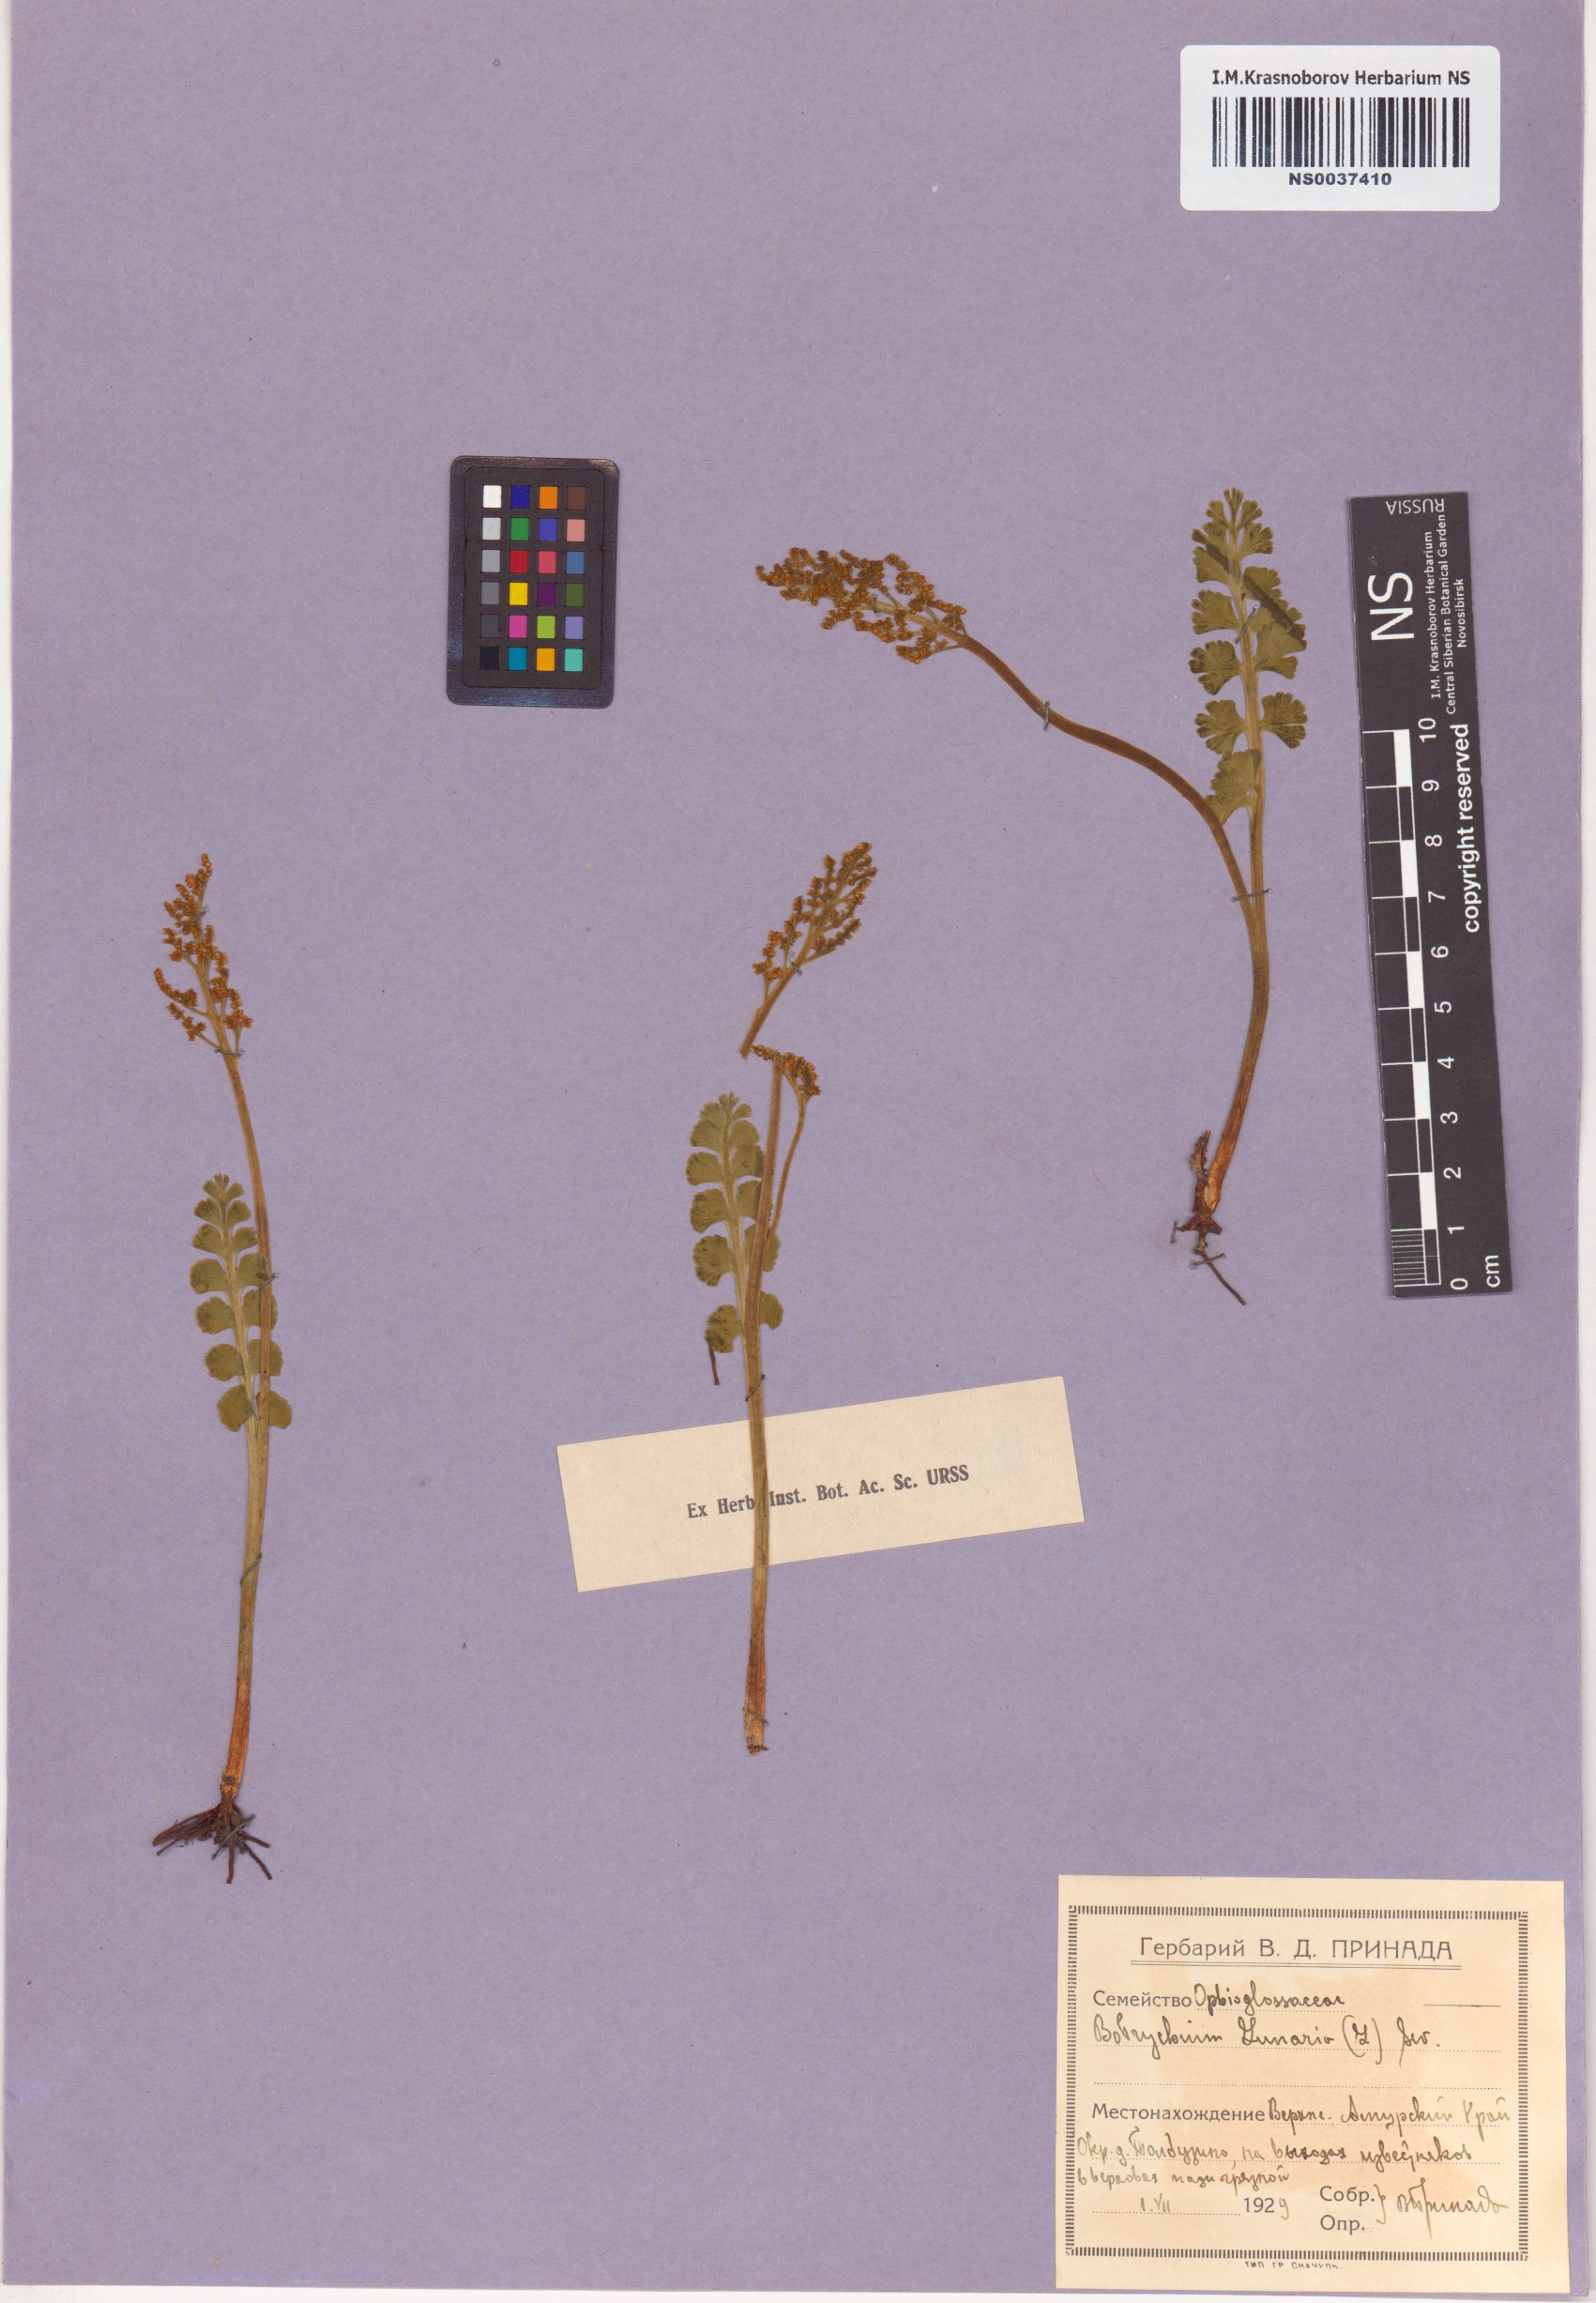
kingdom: Plantae
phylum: Tracheophyta
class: Polypodiopsida
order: Ophioglossales
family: Ophioglossaceae
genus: Botrychium
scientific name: Botrychium lunaria
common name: Moonwort
